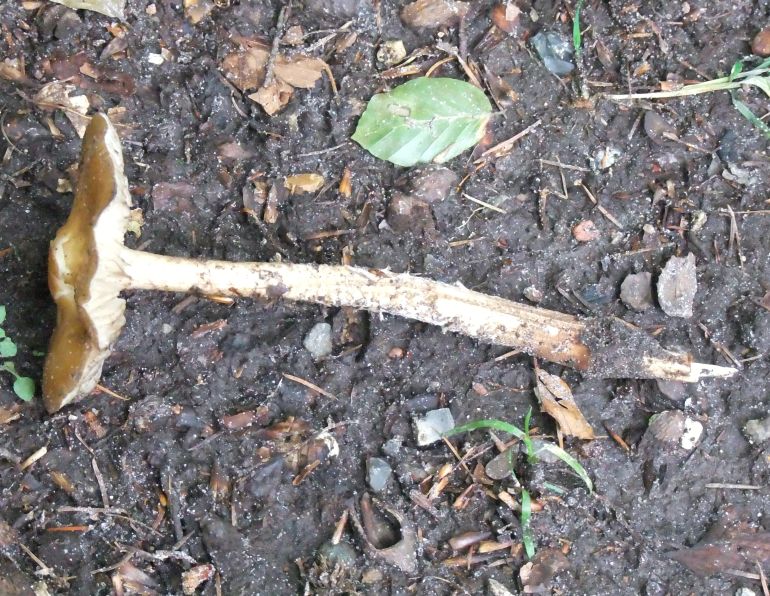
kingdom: Fungi
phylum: Basidiomycota
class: Agaricomycetes
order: Agaricales
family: Physalacriaceae
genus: Hymenopellis
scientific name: Hymenopellis radicata
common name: almindelig pælerodshat
